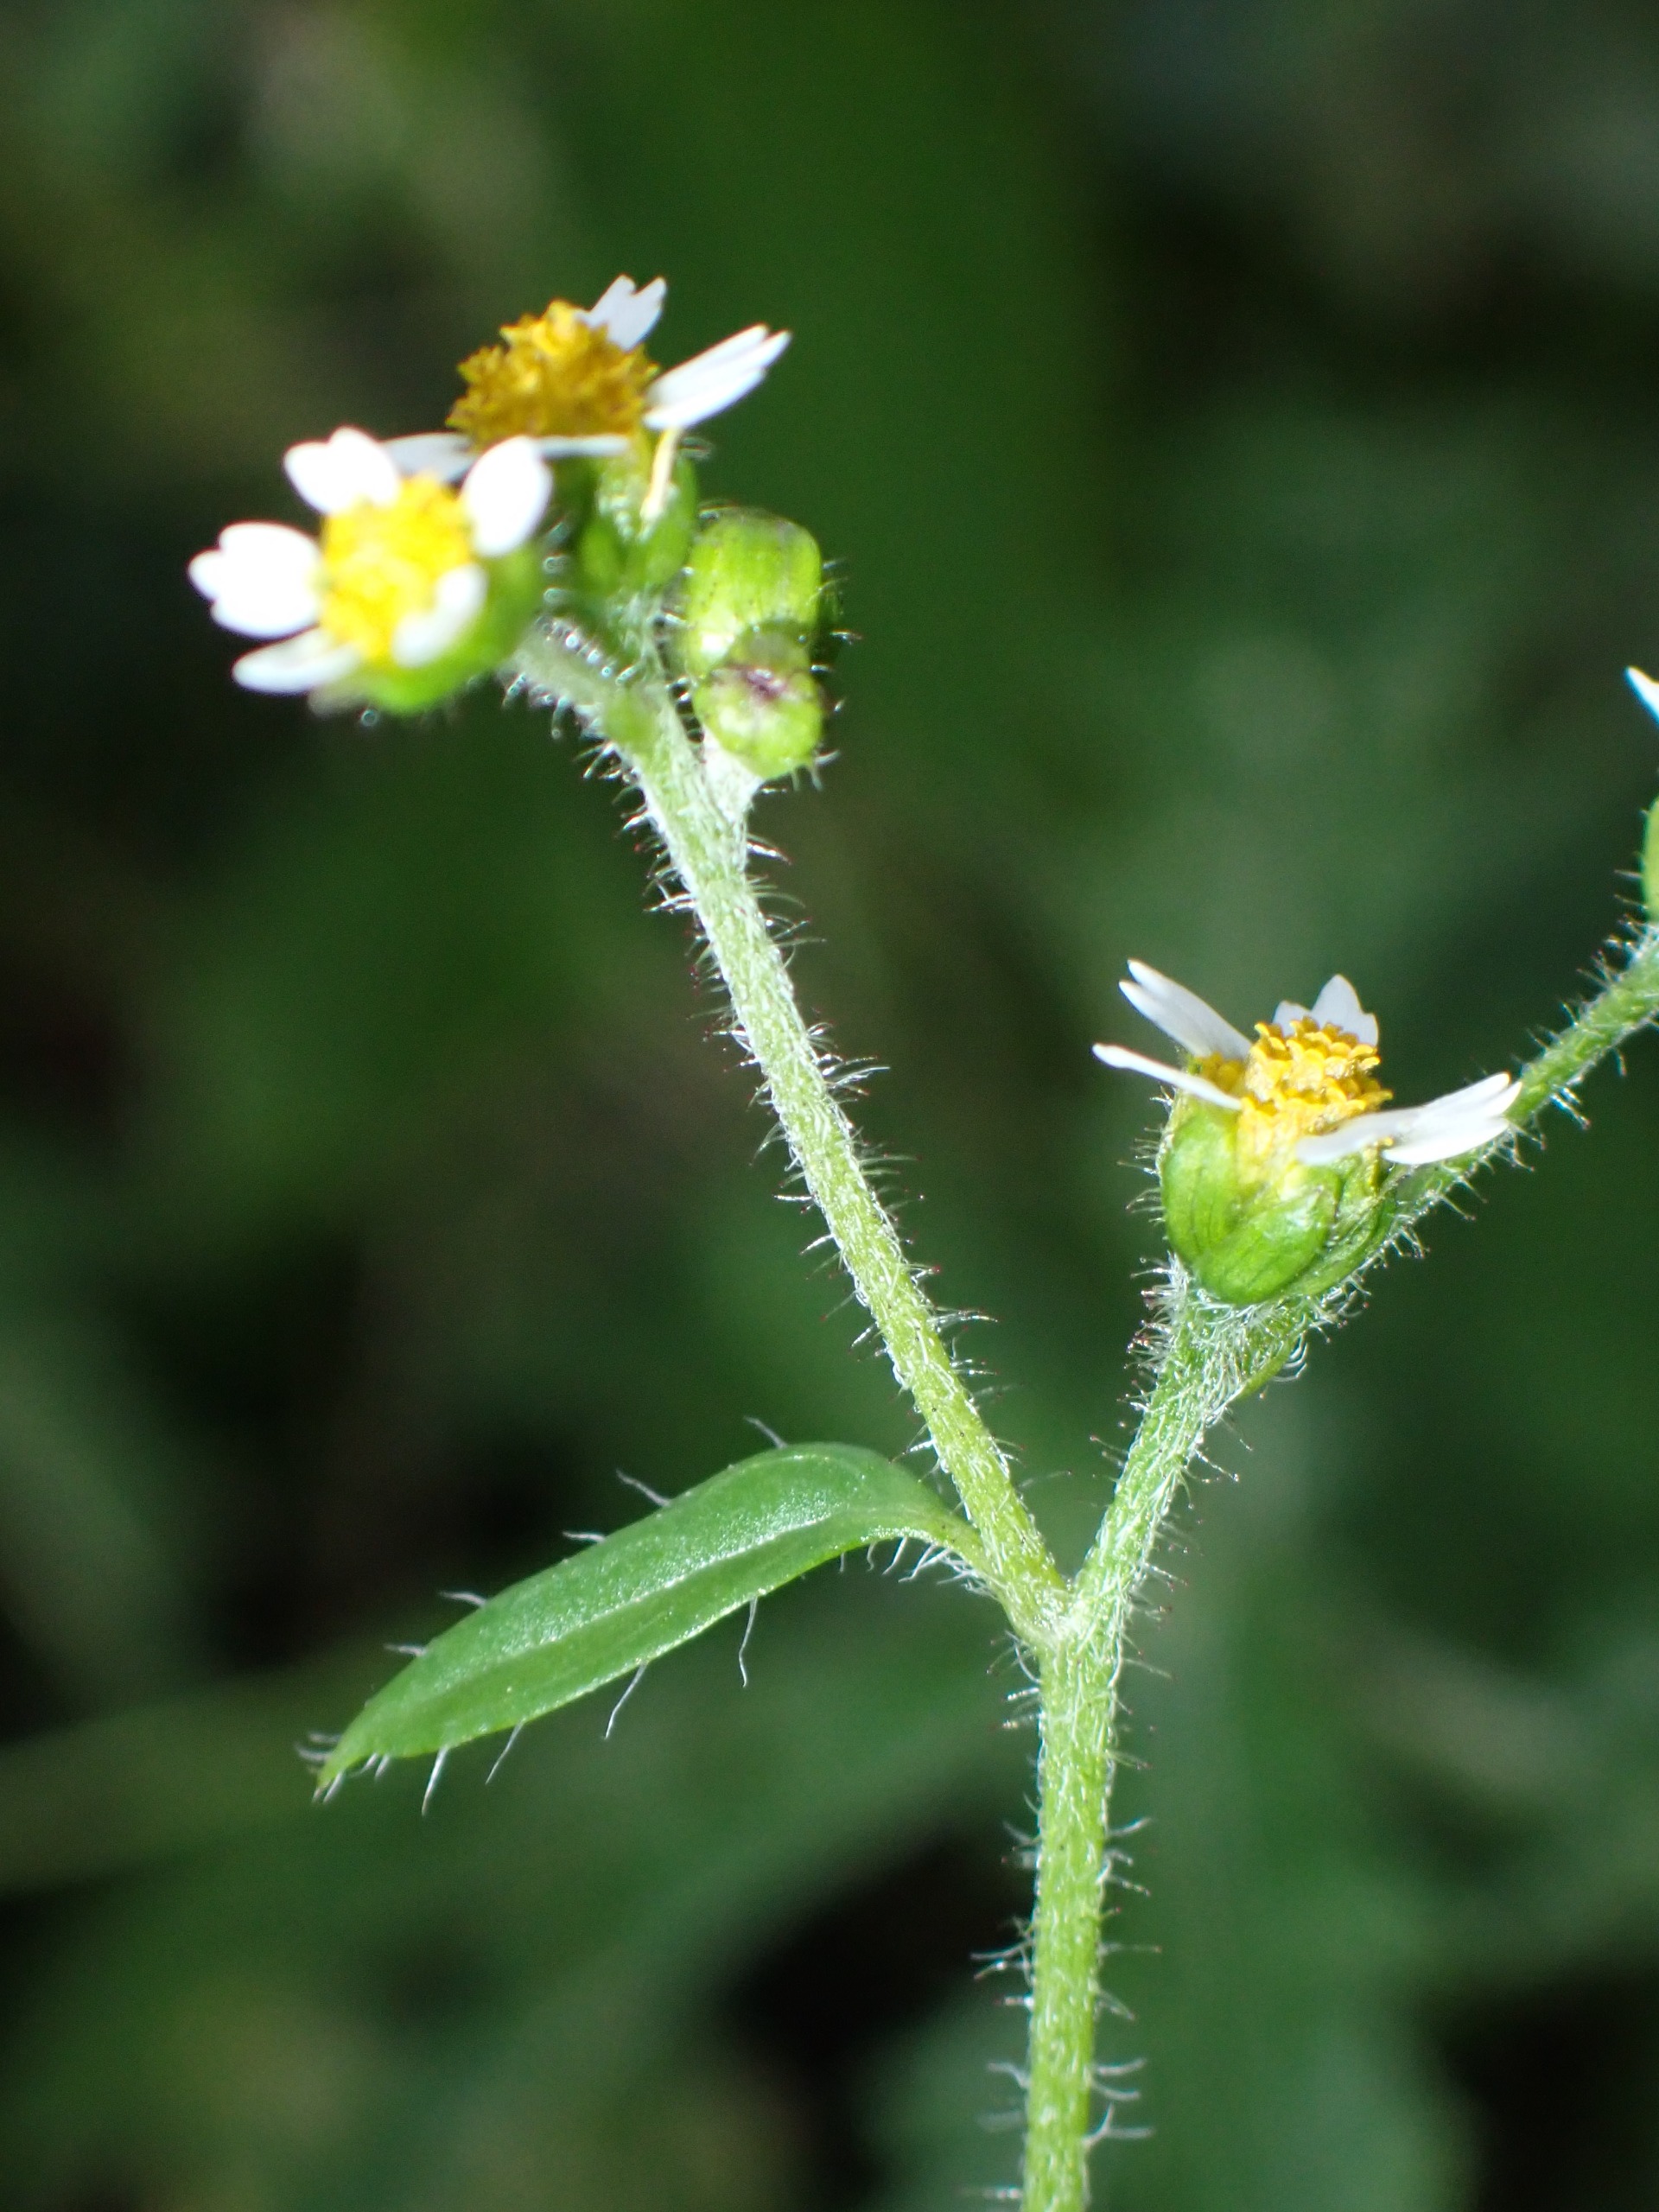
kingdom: Plantae
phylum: Tracheophyta
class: Magnoliopsida
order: Asterales
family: Asteraceae
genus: Galinsoga
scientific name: Galinsoga quadriradiata
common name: Kirtel-kortstråle
